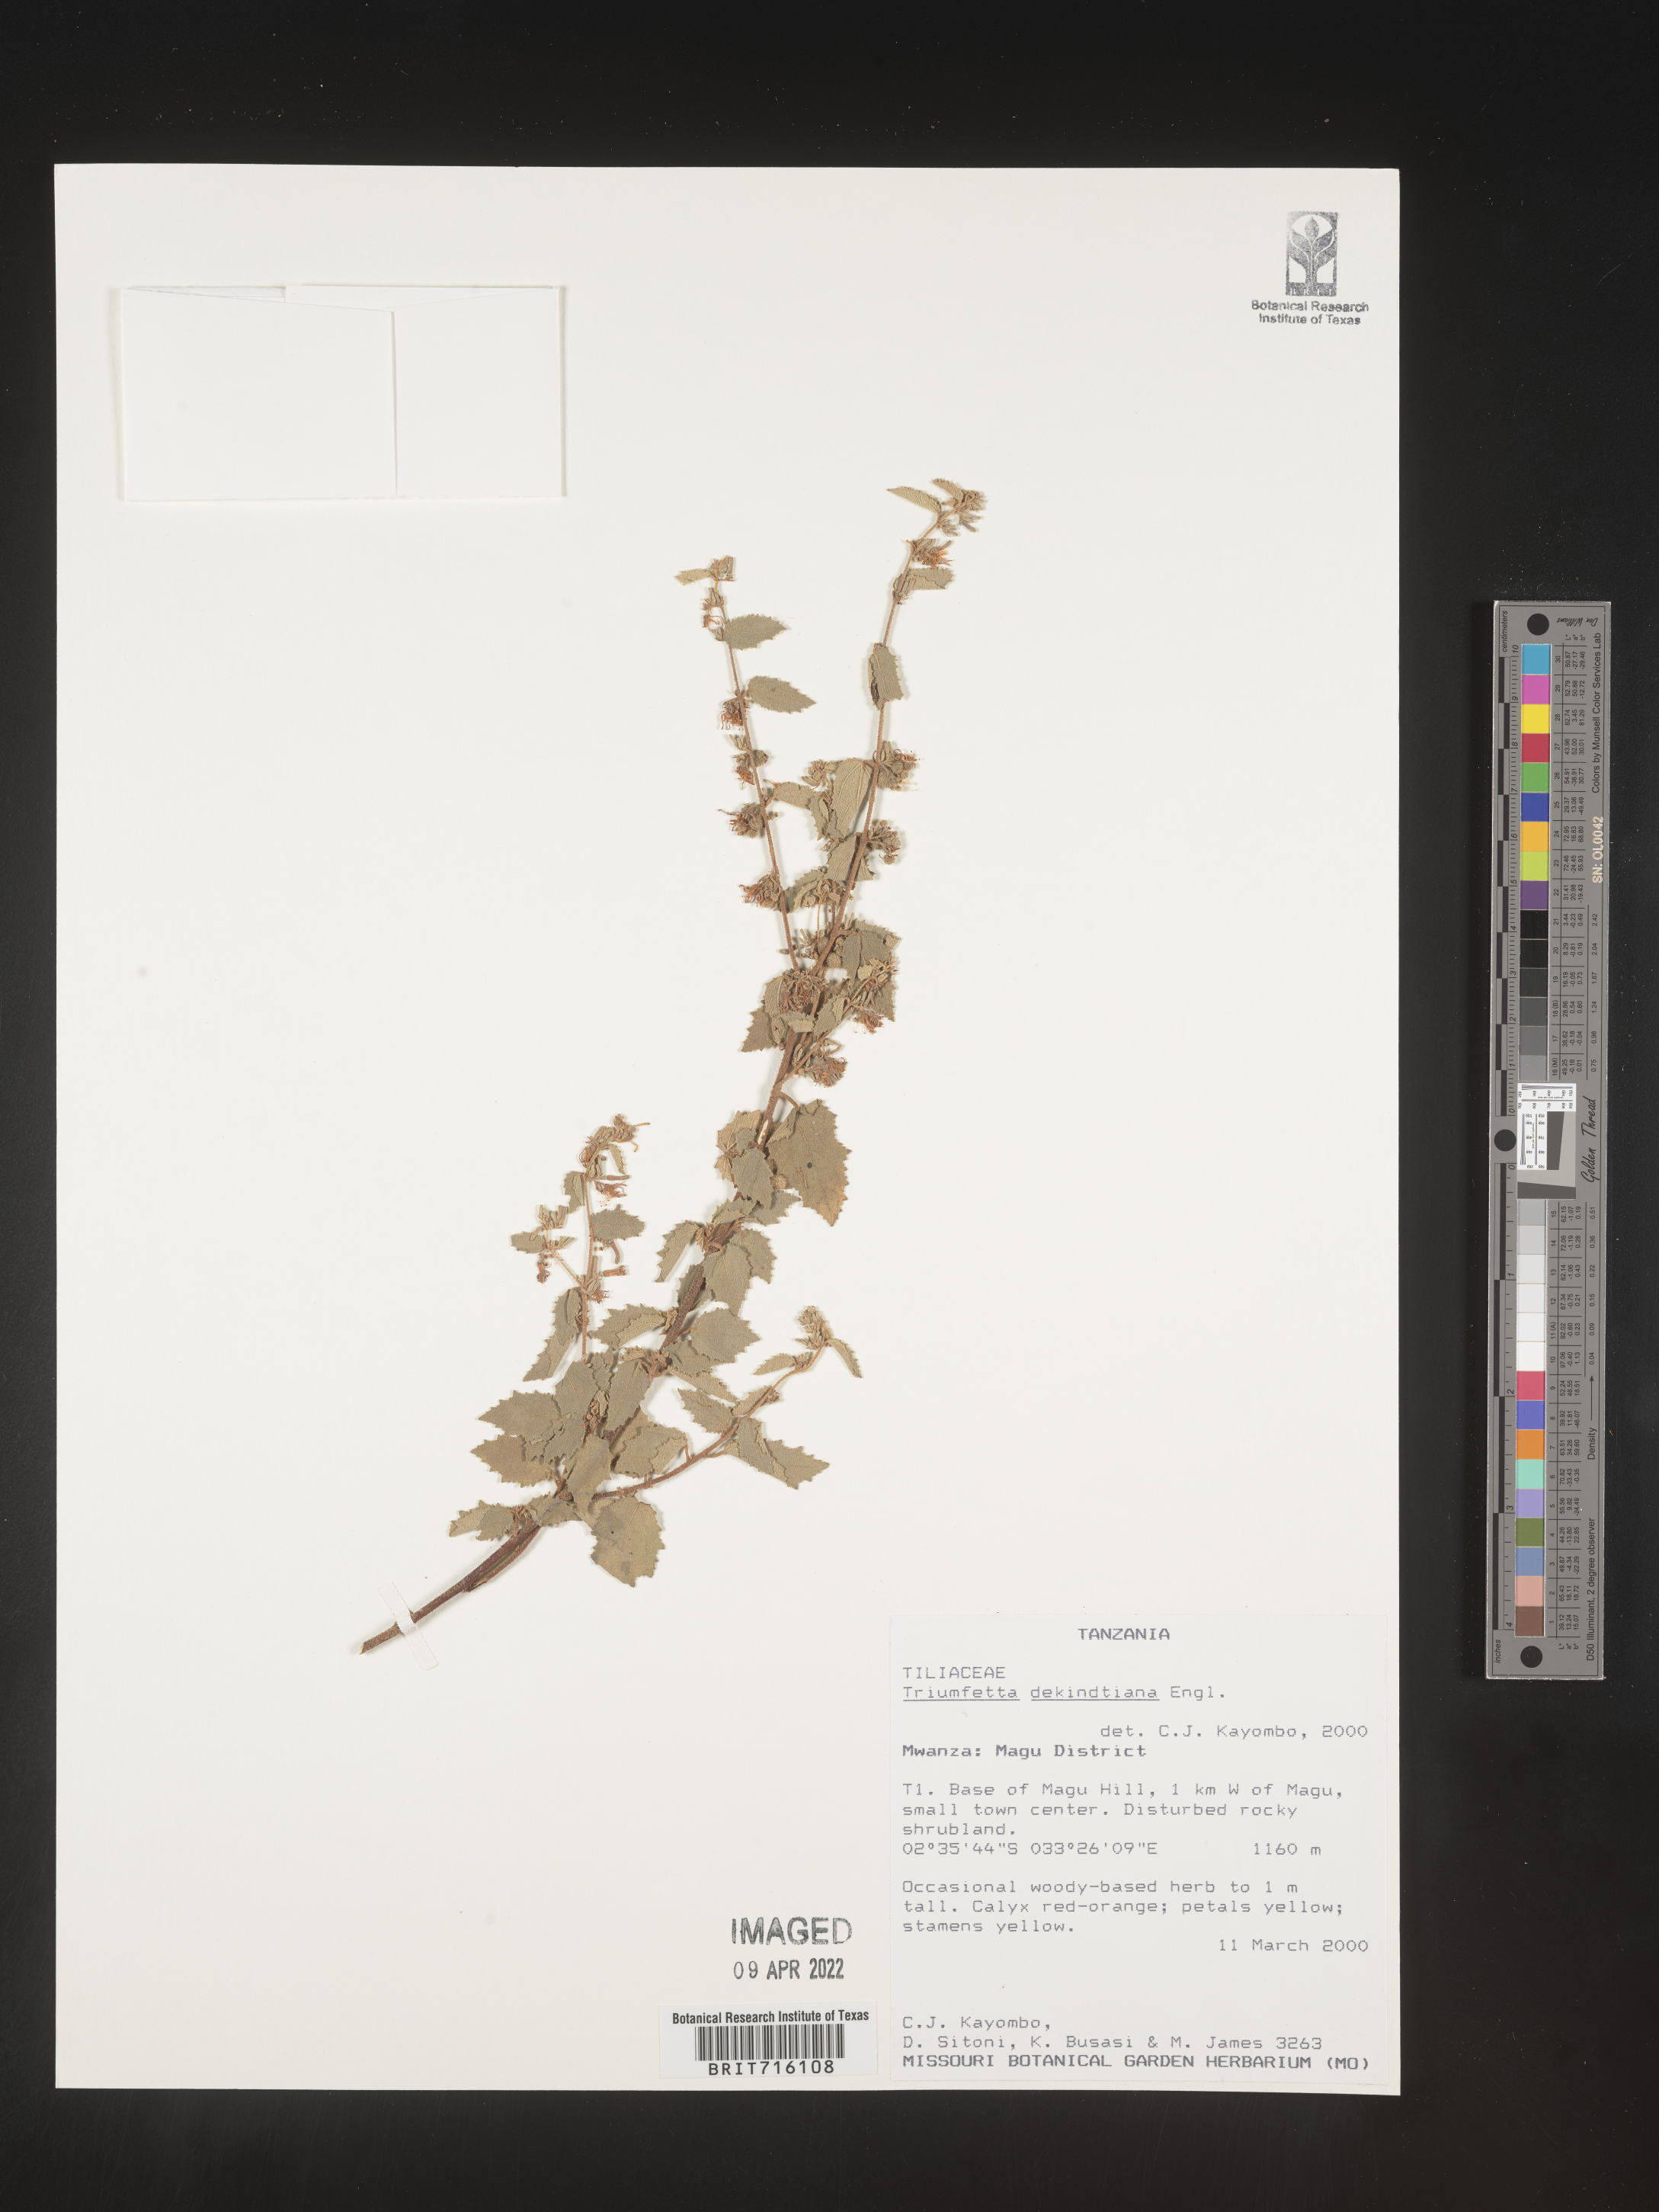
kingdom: Plantae
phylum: Tracheophyta
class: Magnoliopsida
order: Malvales
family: Malvaceae
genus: Triumfetta
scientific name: Triumfetta
